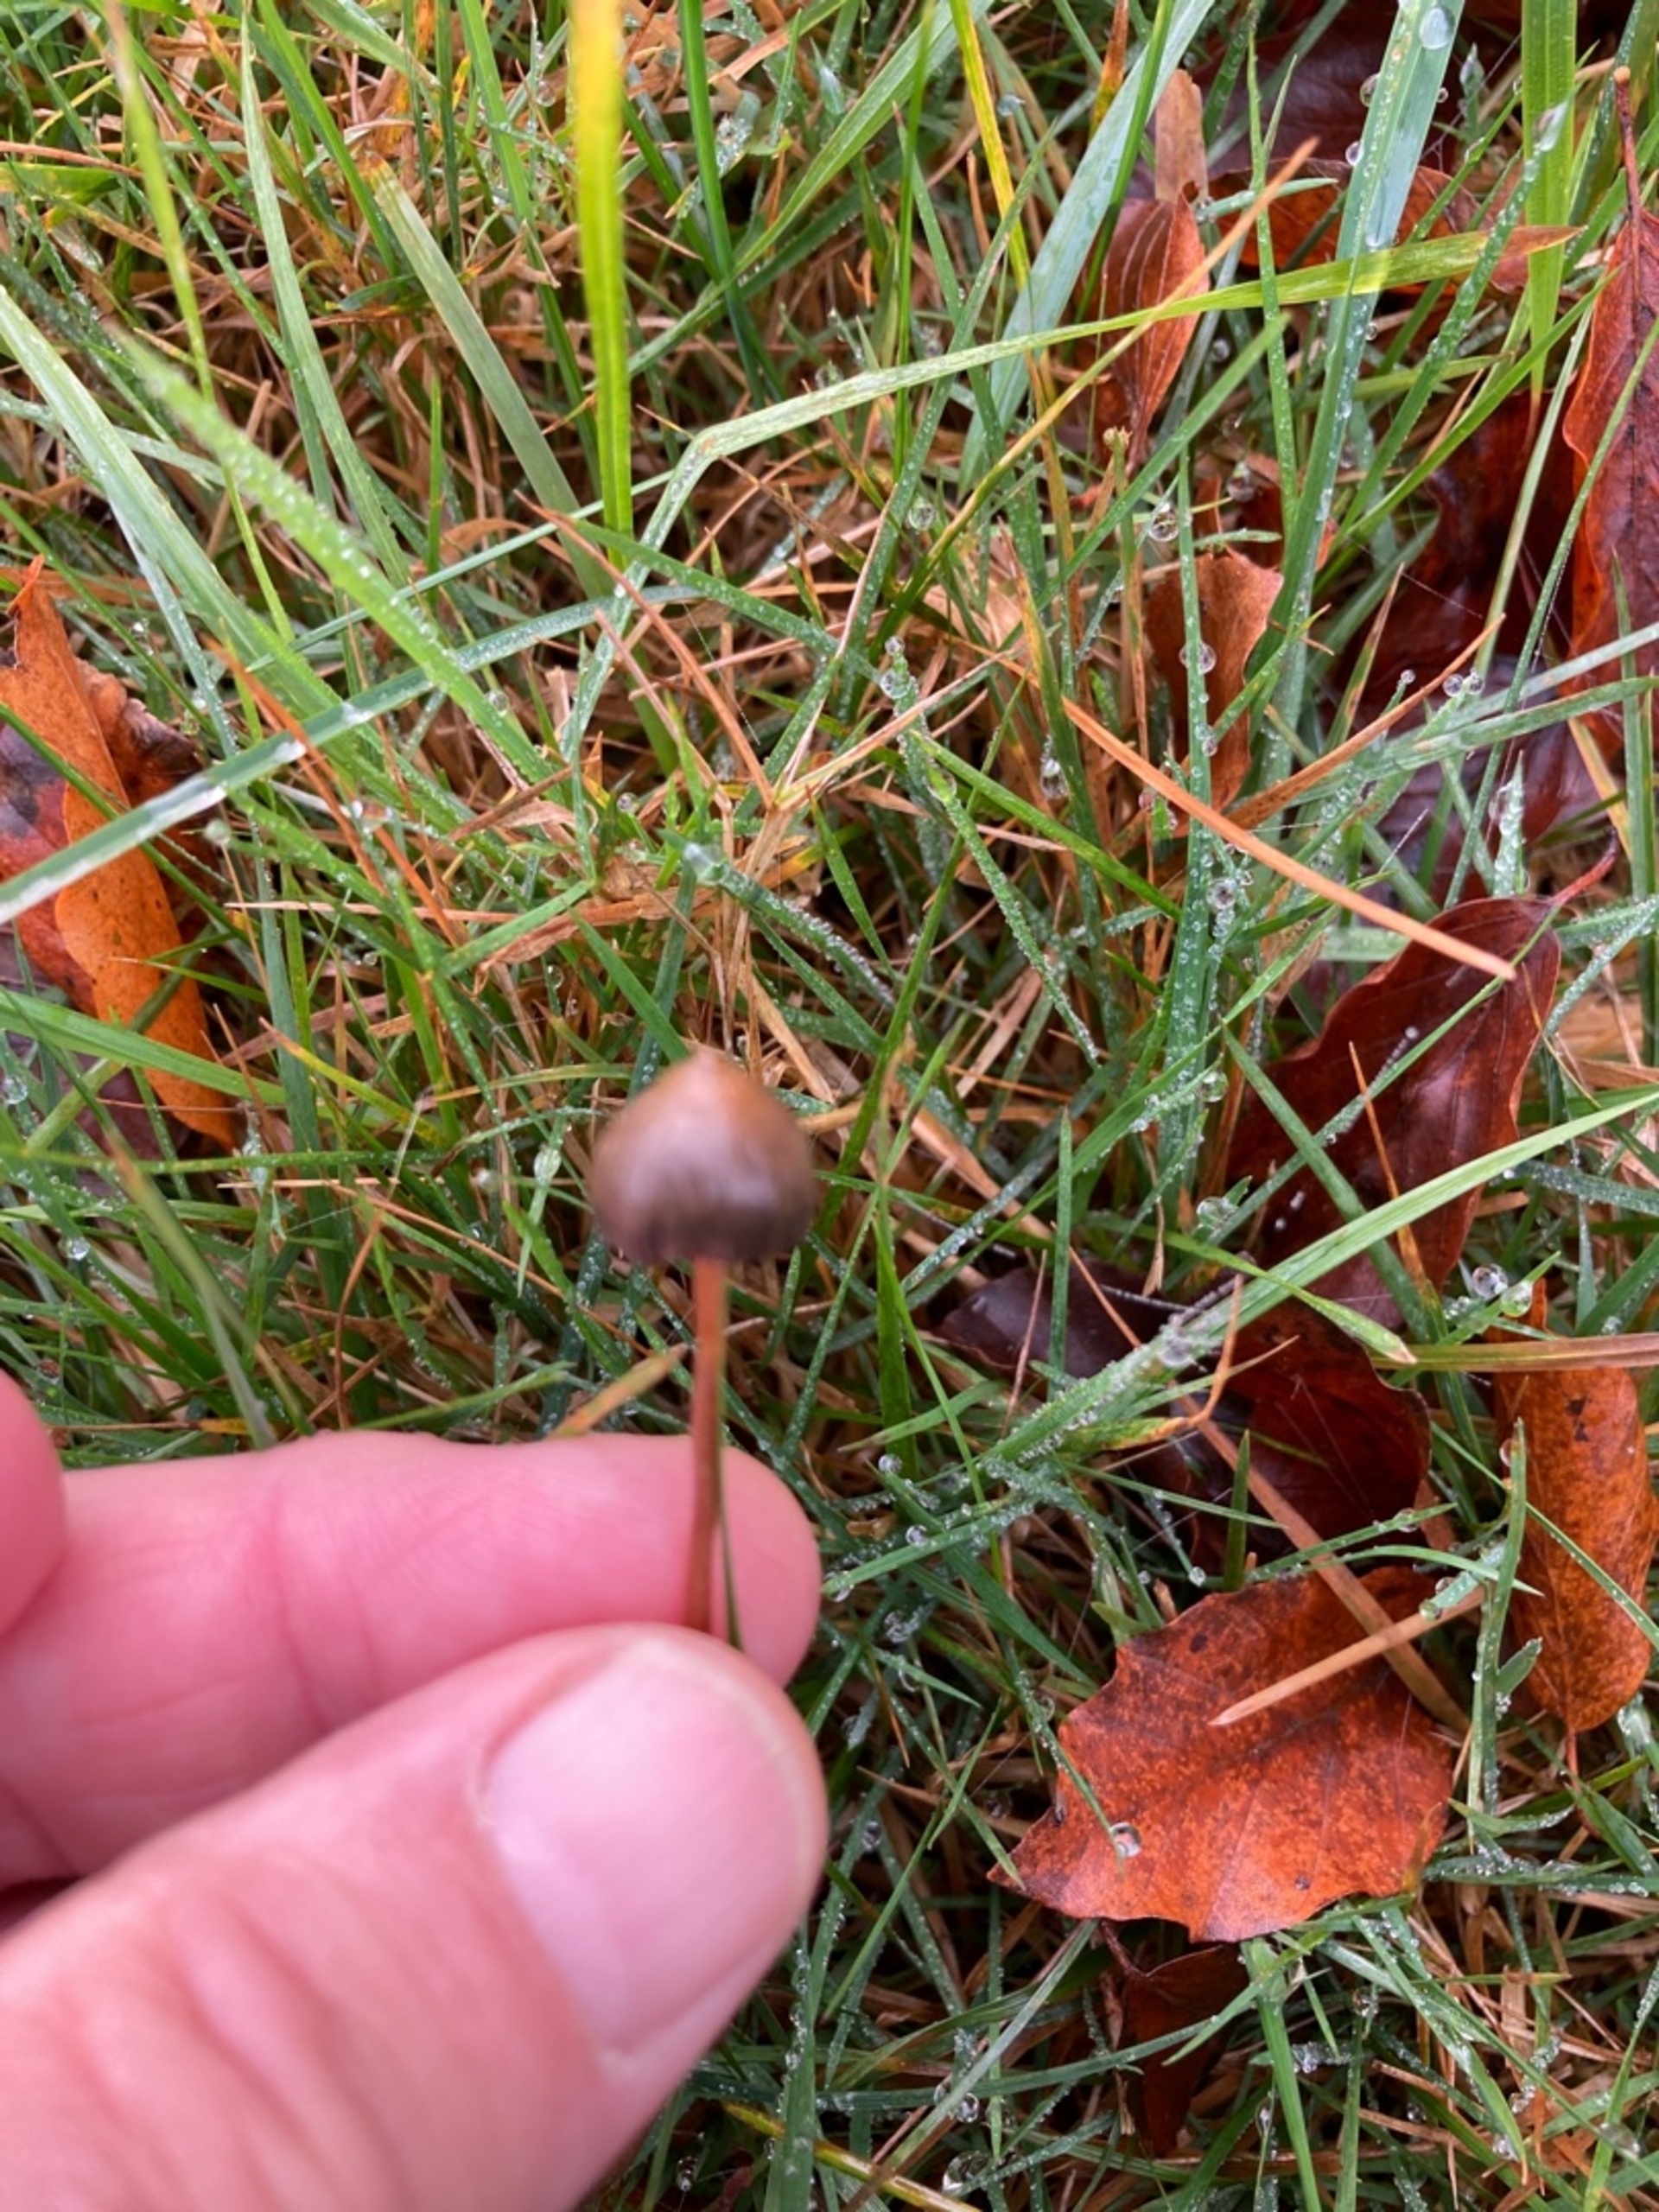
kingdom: Fungi
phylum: Basidiomycota
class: Agaricomycetes
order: Agaricales
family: Hymenogastraceae
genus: Psilocybe
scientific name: Psilocybe semilanceata
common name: Spids nøgenhat
